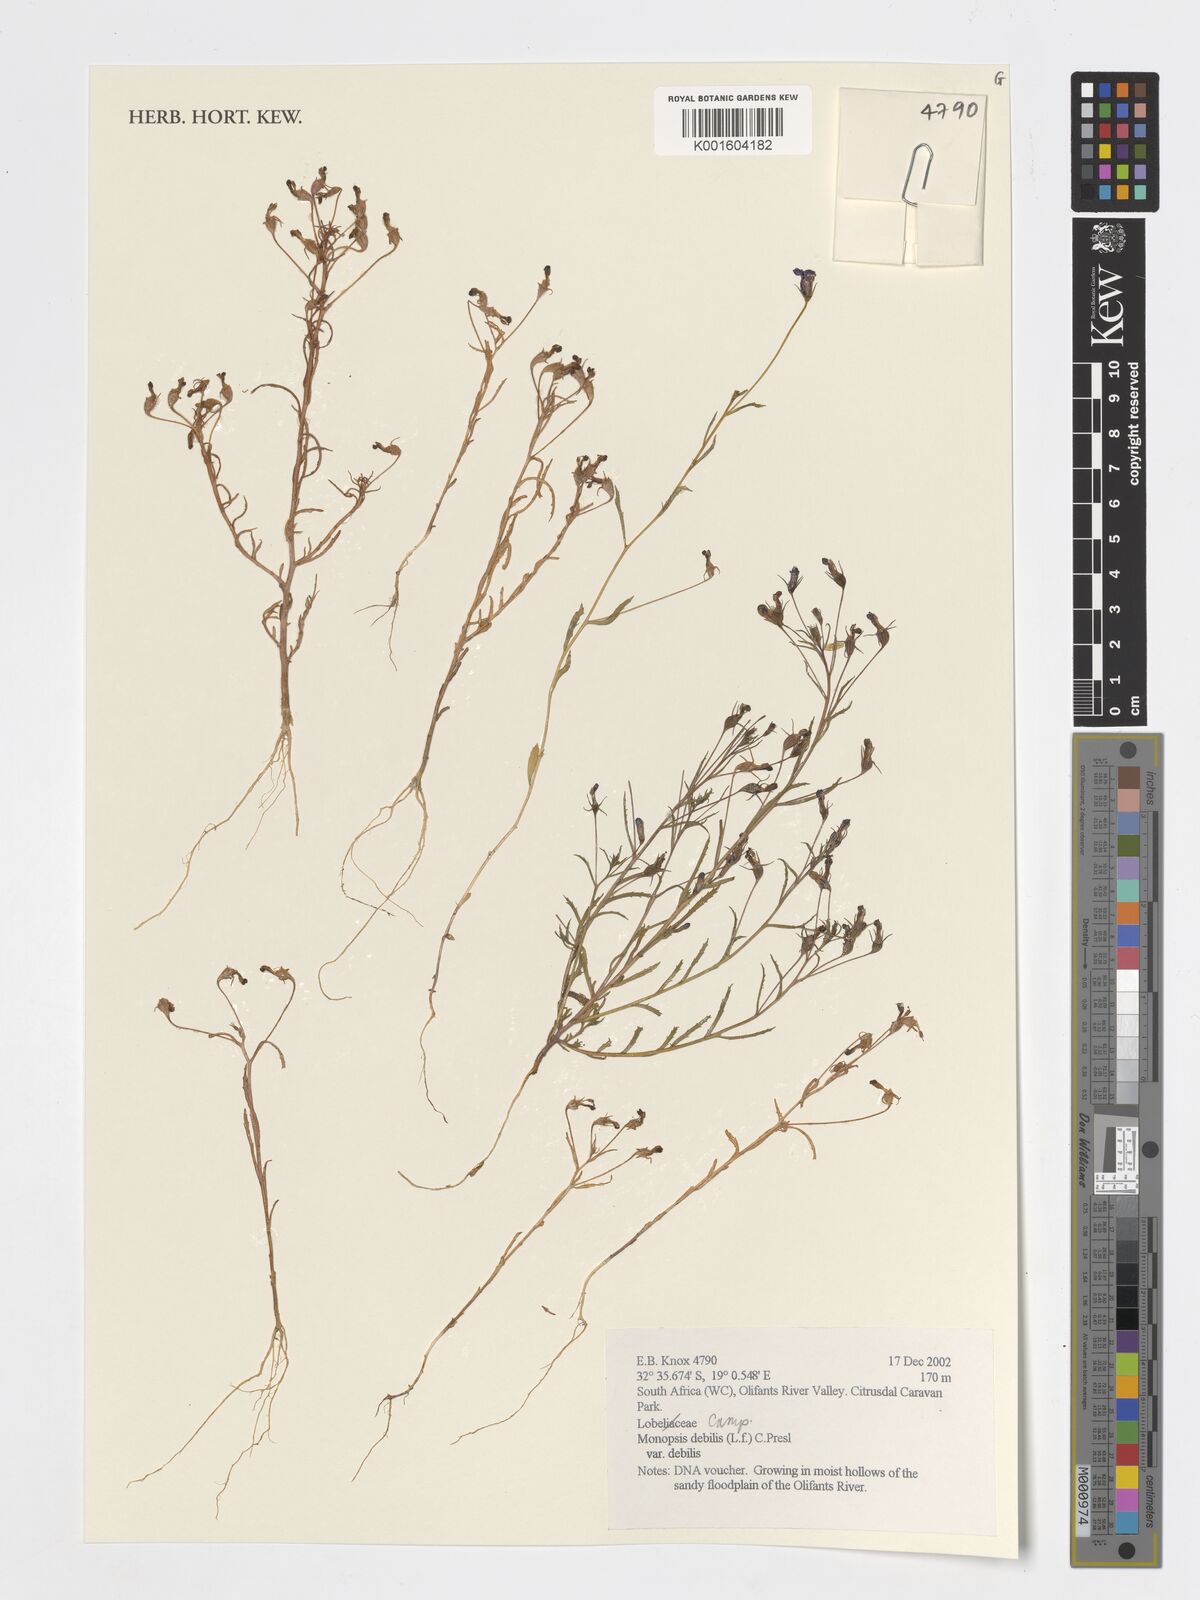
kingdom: Plantae
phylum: Tracheophyta
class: Magnoliopsida
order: Asterales
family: Campanulaceae
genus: Monopsis
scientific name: Monopsis debilis
